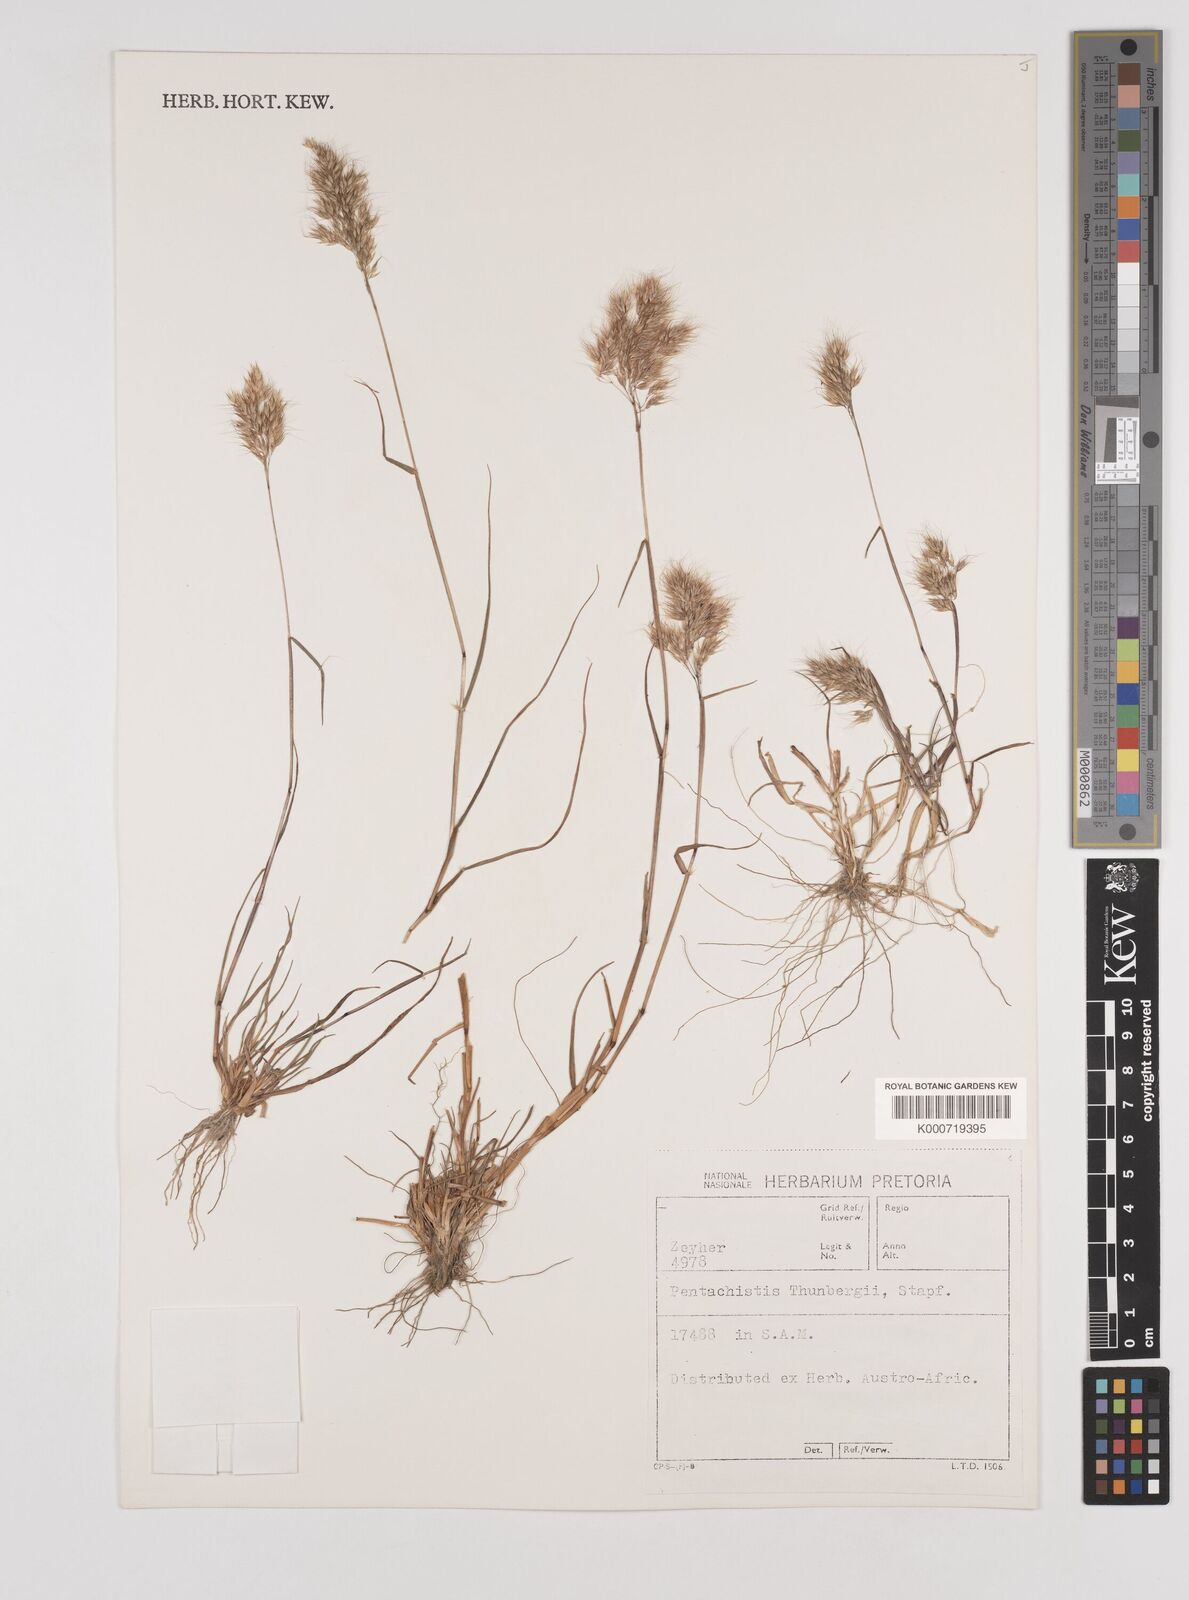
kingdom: Plantae
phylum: Tracheophyta
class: Liliopsida
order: Poales
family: Poaceae
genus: Pentameris
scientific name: Pentameris triseta
